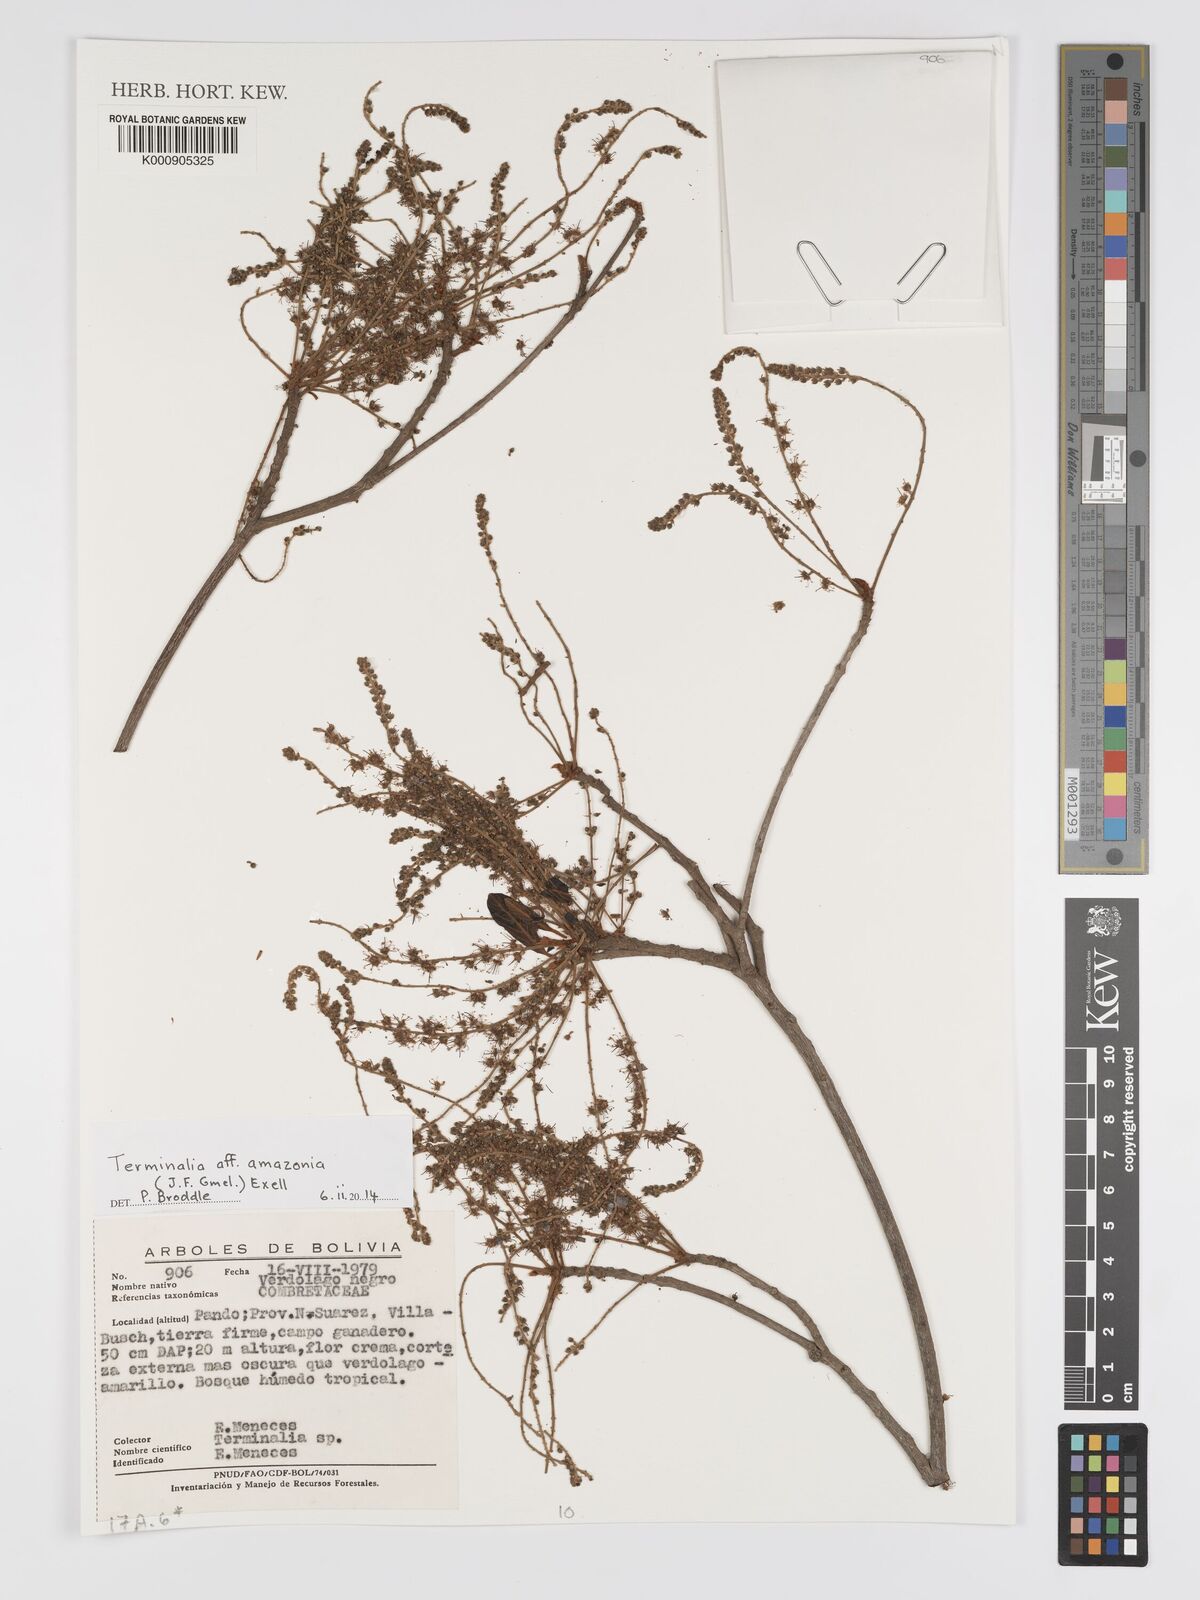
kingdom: Plantae
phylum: Tracheophyta
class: Magnoliopsida
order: Myrtales
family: Combretaceae
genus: Terminalia
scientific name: Terminalia amazonica
